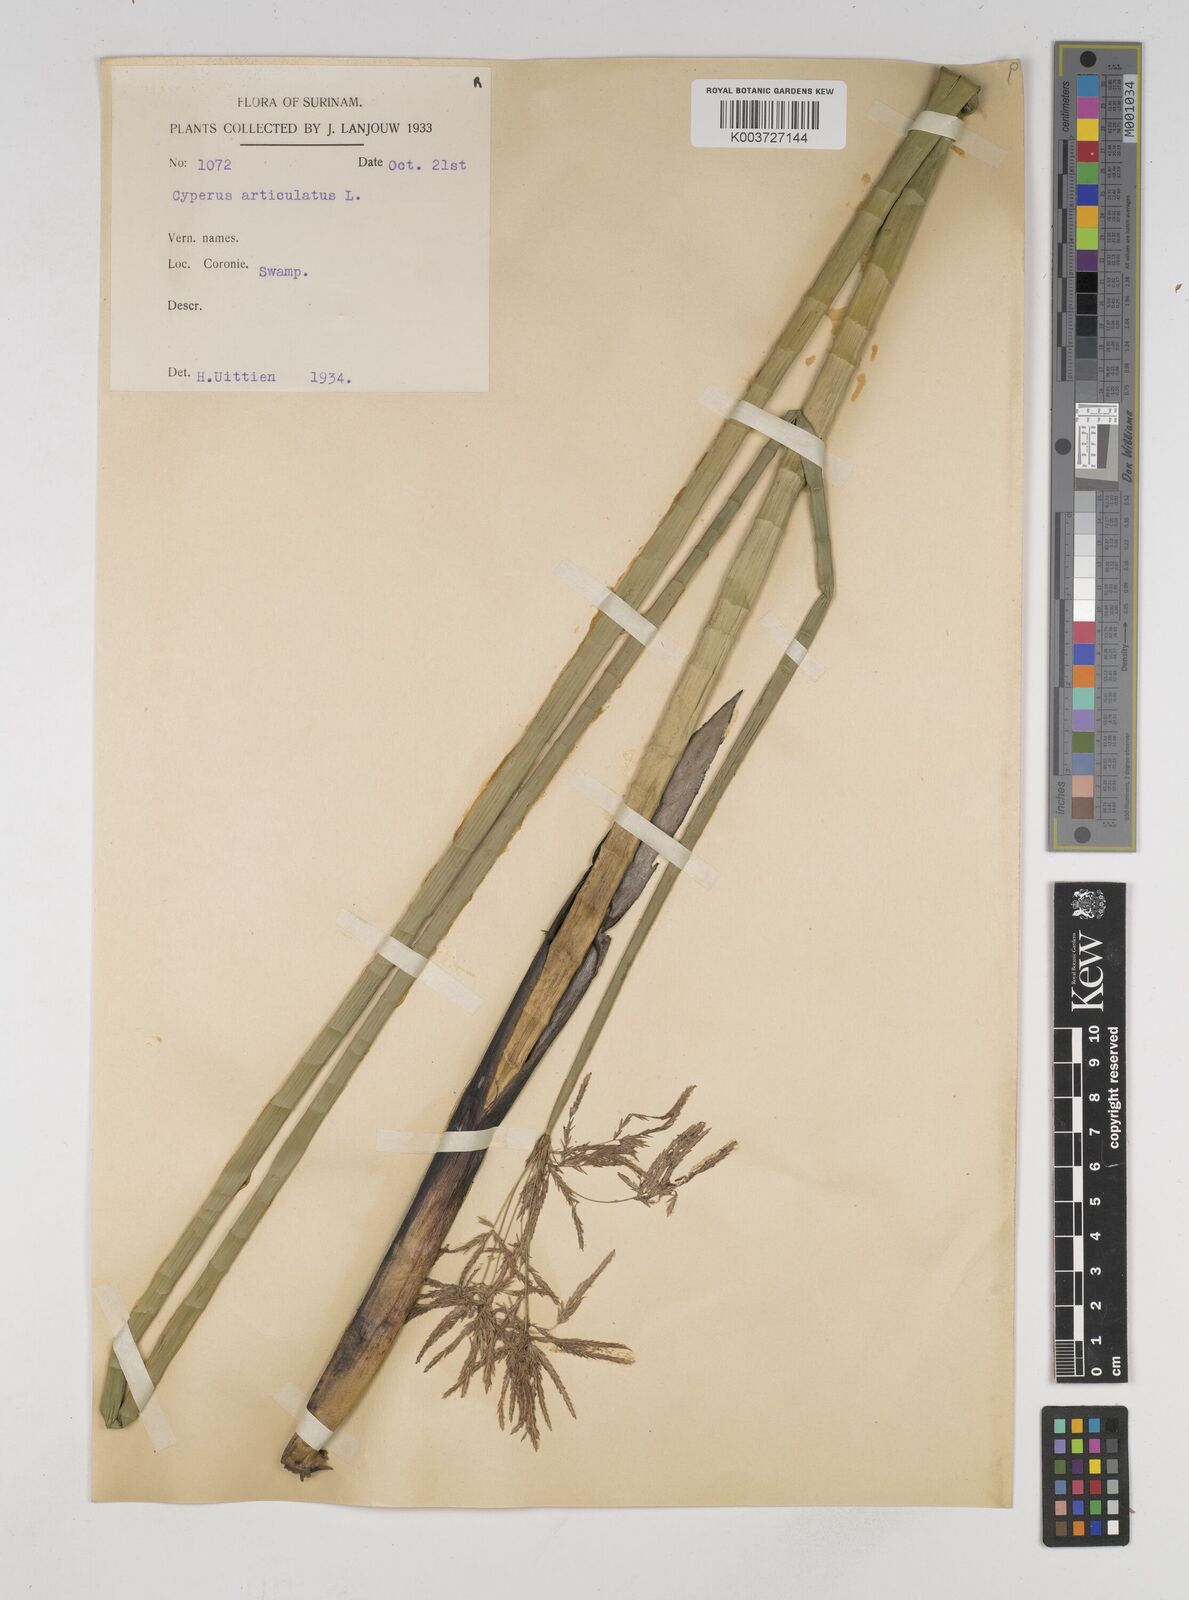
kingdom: Plantae
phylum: Tracheophyta
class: Liliopsida
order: Poales
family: Cyperaceae
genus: Cyperus
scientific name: Cyperus articulatus
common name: Jointed flatsedge
